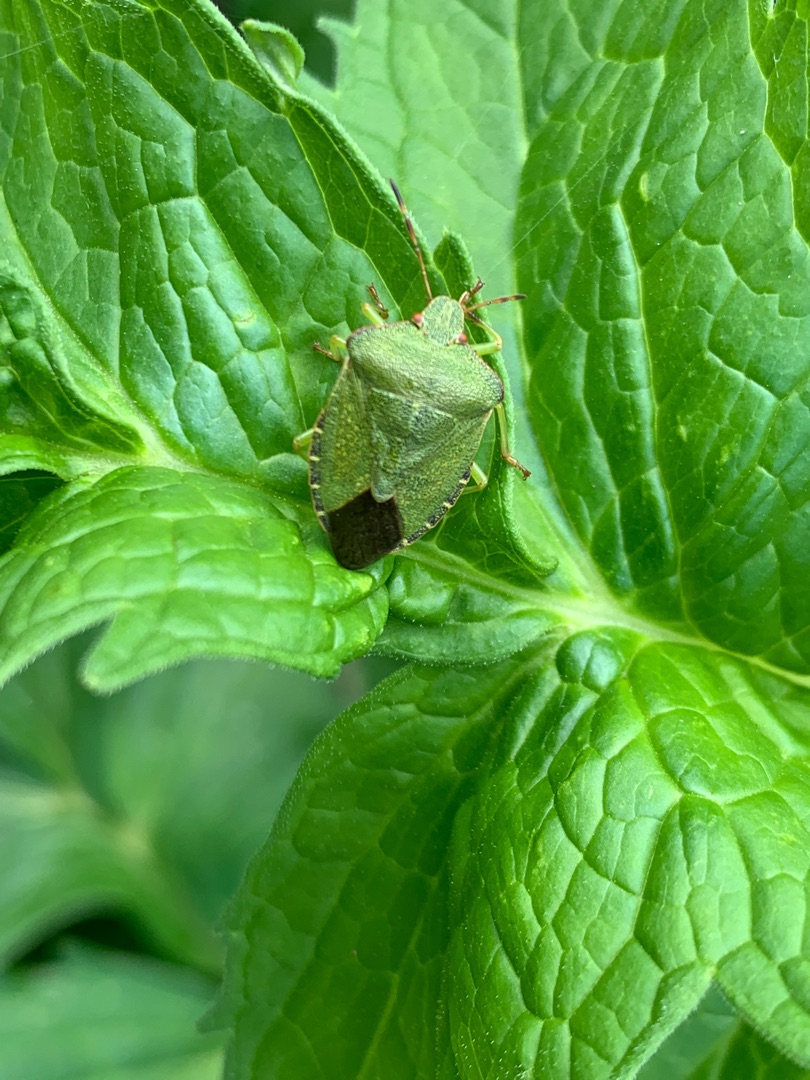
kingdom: Animalia
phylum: Arthropoda
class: Insecta
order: Hemiptera
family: Pentatomidae
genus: Palomena
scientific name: Palomena prasina
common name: Grøn bredtæge
